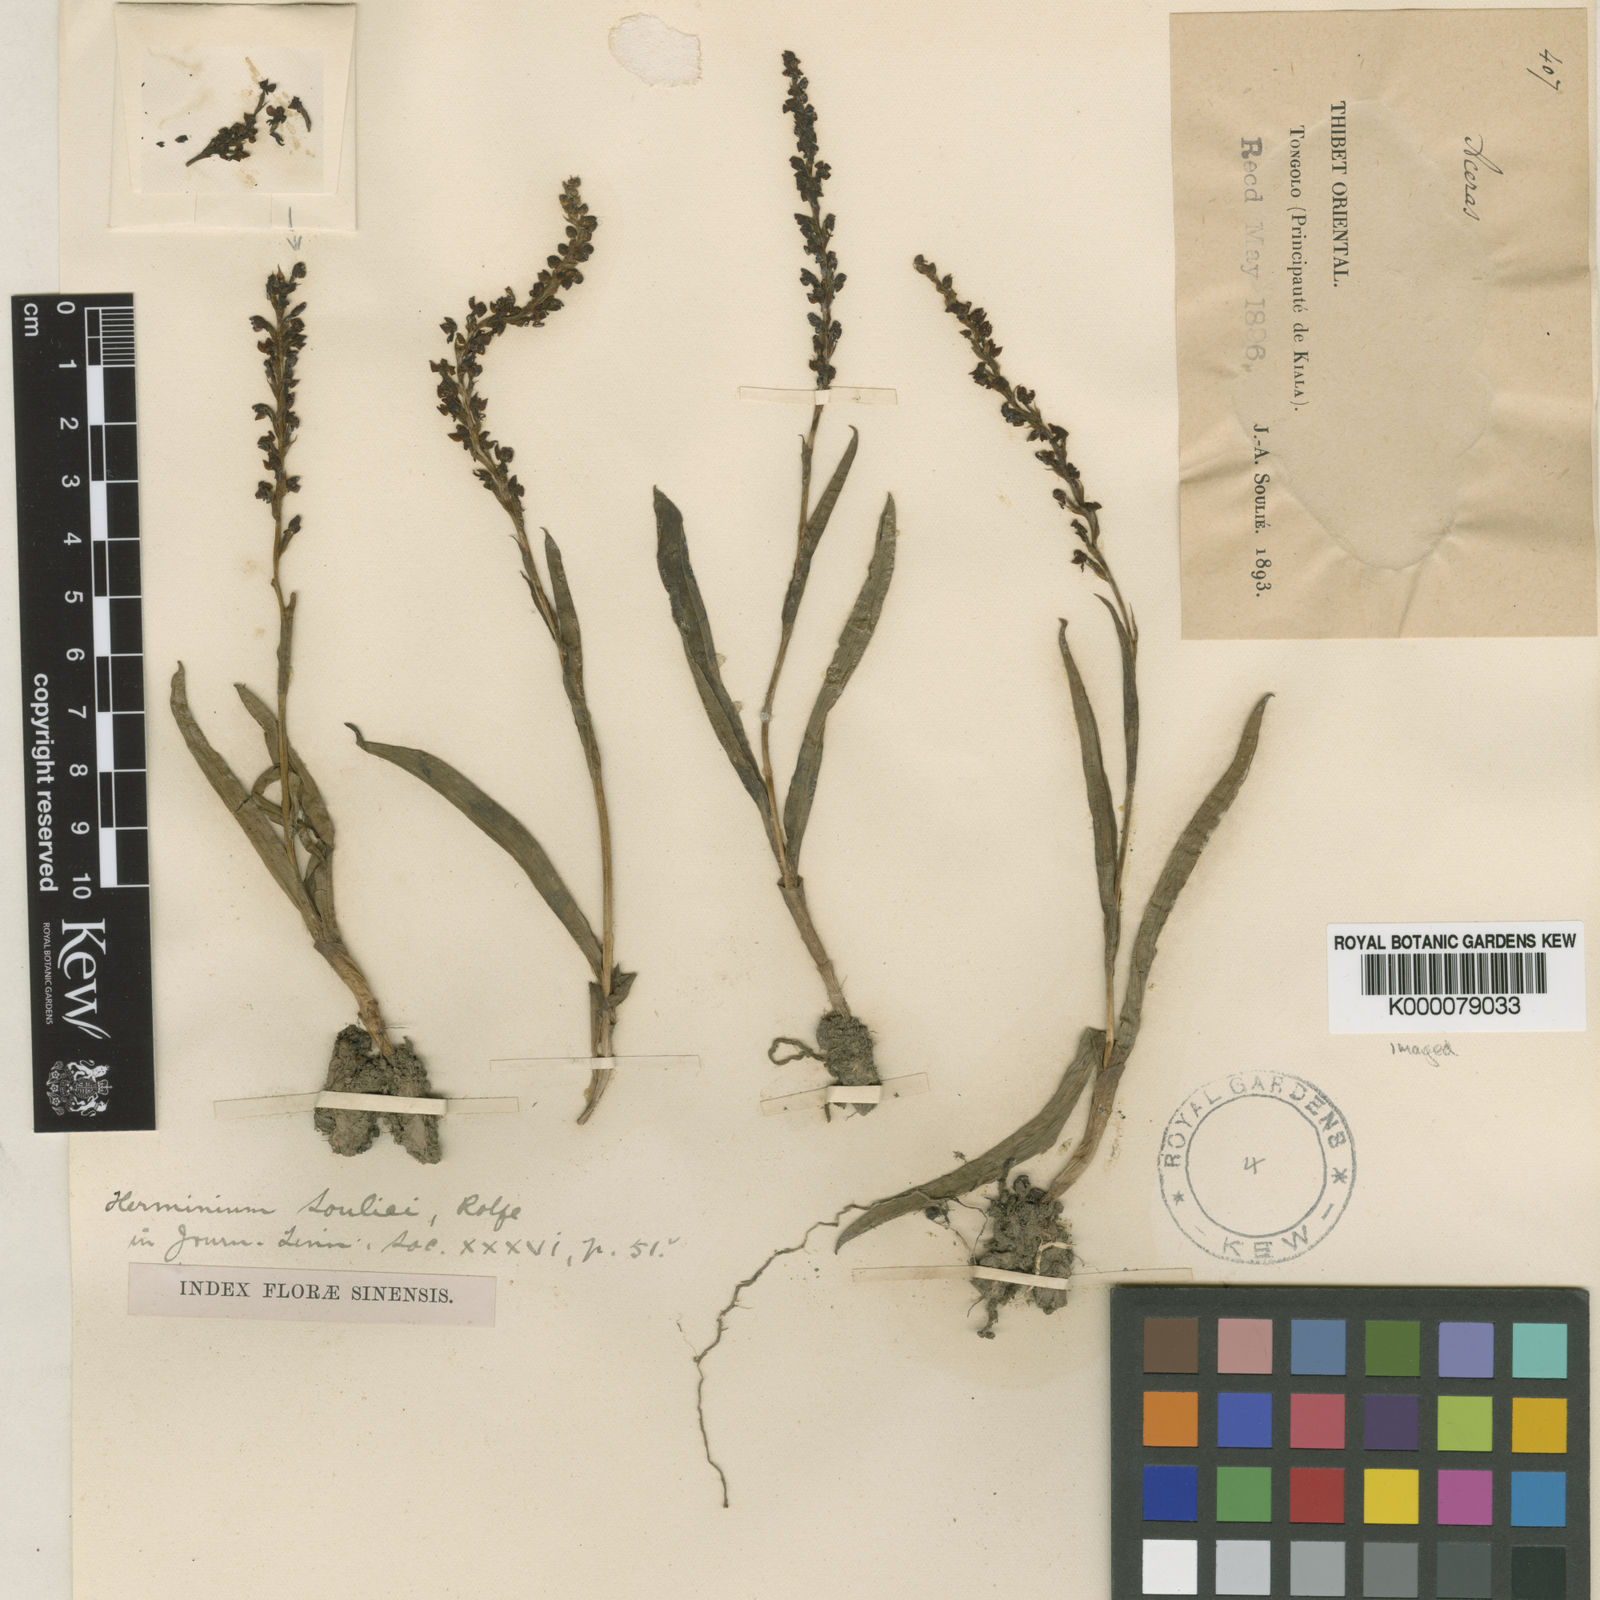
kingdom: Plantae
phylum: Tracheophyta
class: Liliopsida
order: Asparagales
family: Orchidaceae
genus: Herminium
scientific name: Herminium souliei
